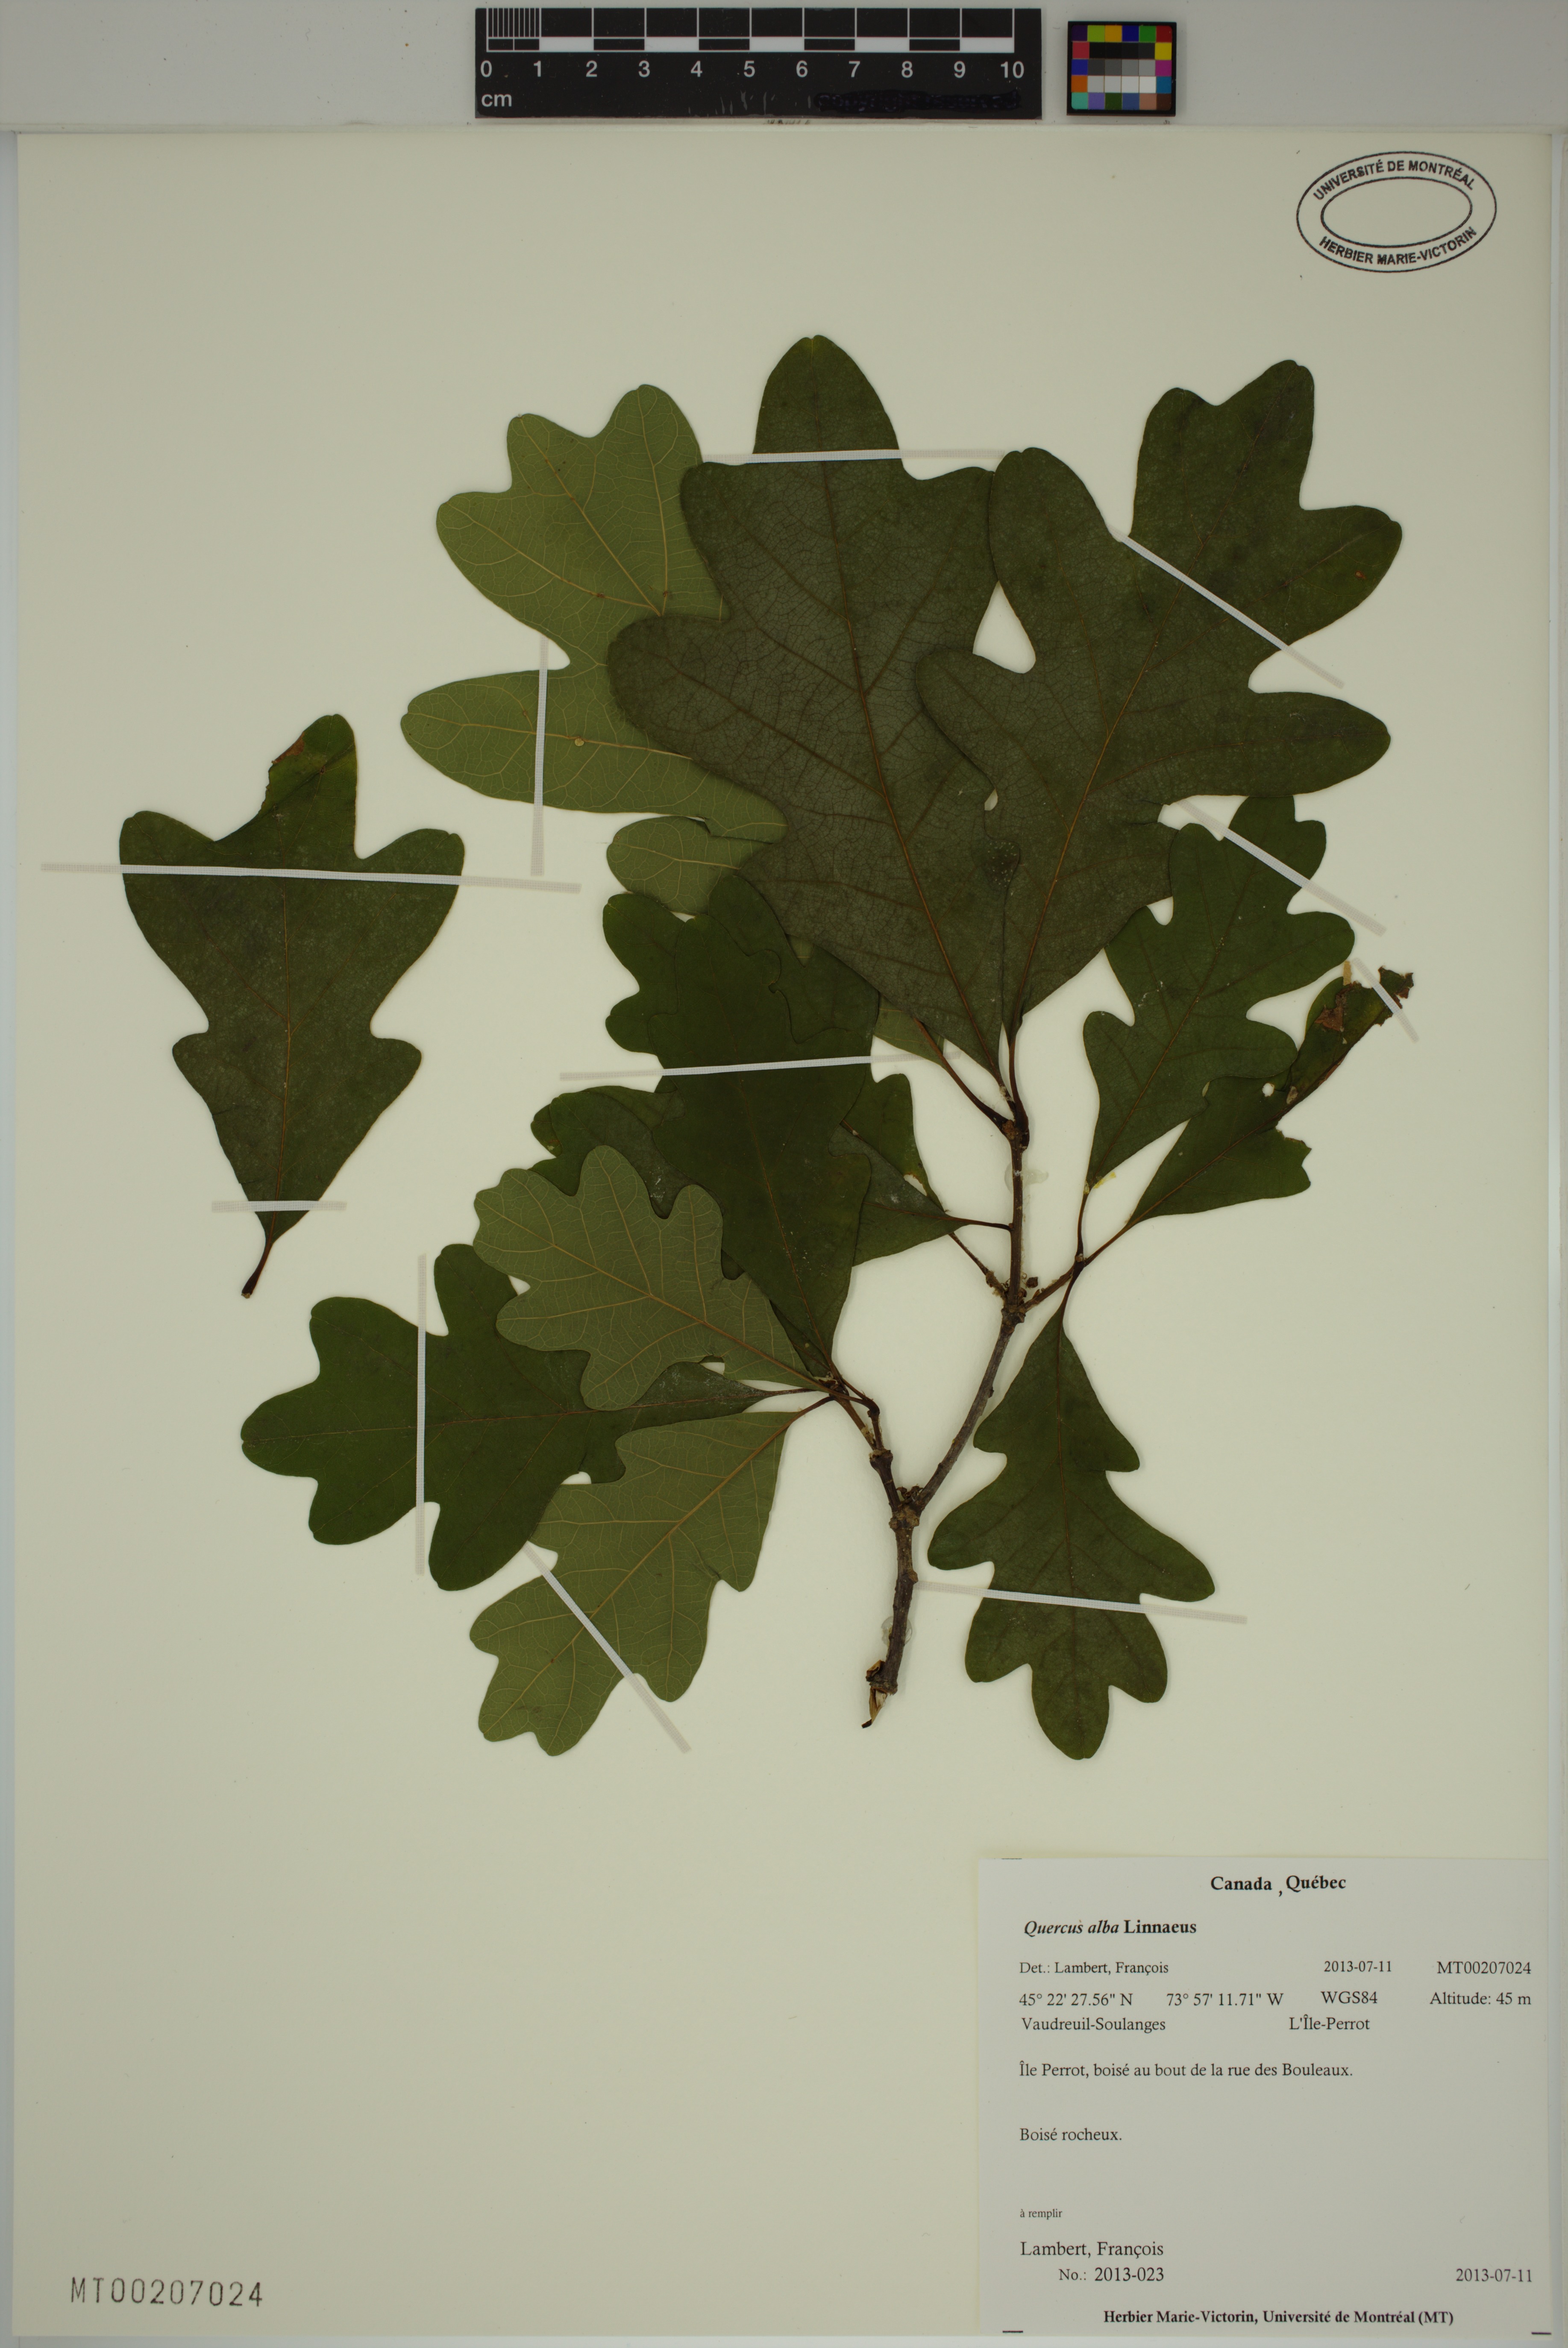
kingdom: Plantae
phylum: Tracheophyta
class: Magnoliopsida
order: Fagales
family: Fagaceae
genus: Quercus
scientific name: Quercus alba
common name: White oak
